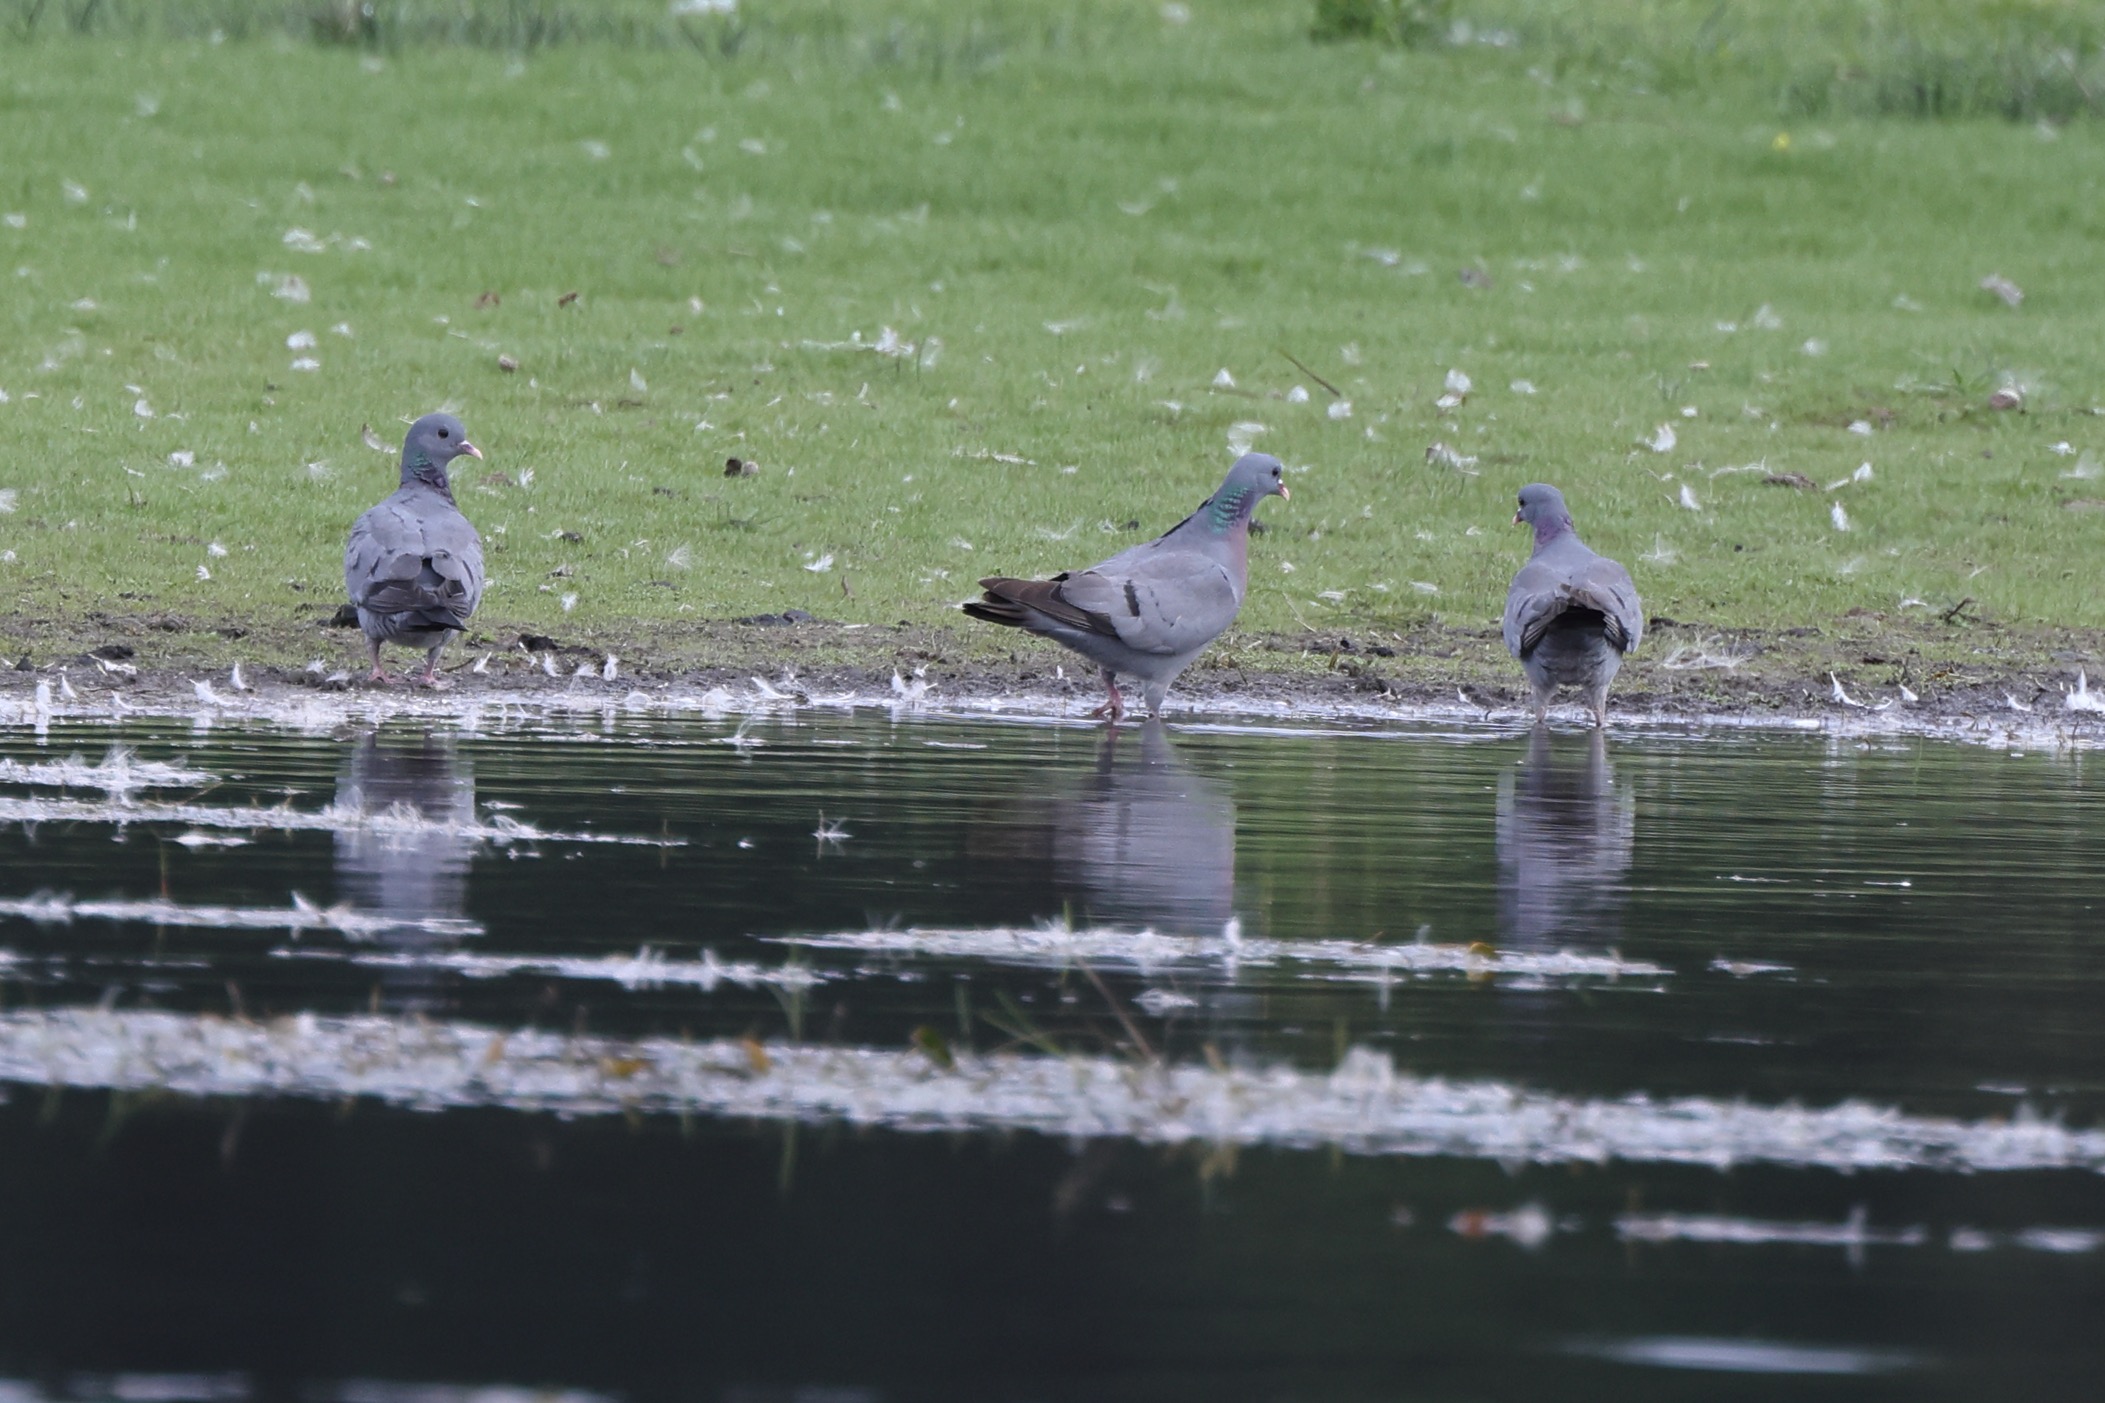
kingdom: Animalia
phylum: Chordata
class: Aves
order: Columbiformes
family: Columbidae
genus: Columba
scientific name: Columba oenas
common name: Huldue
